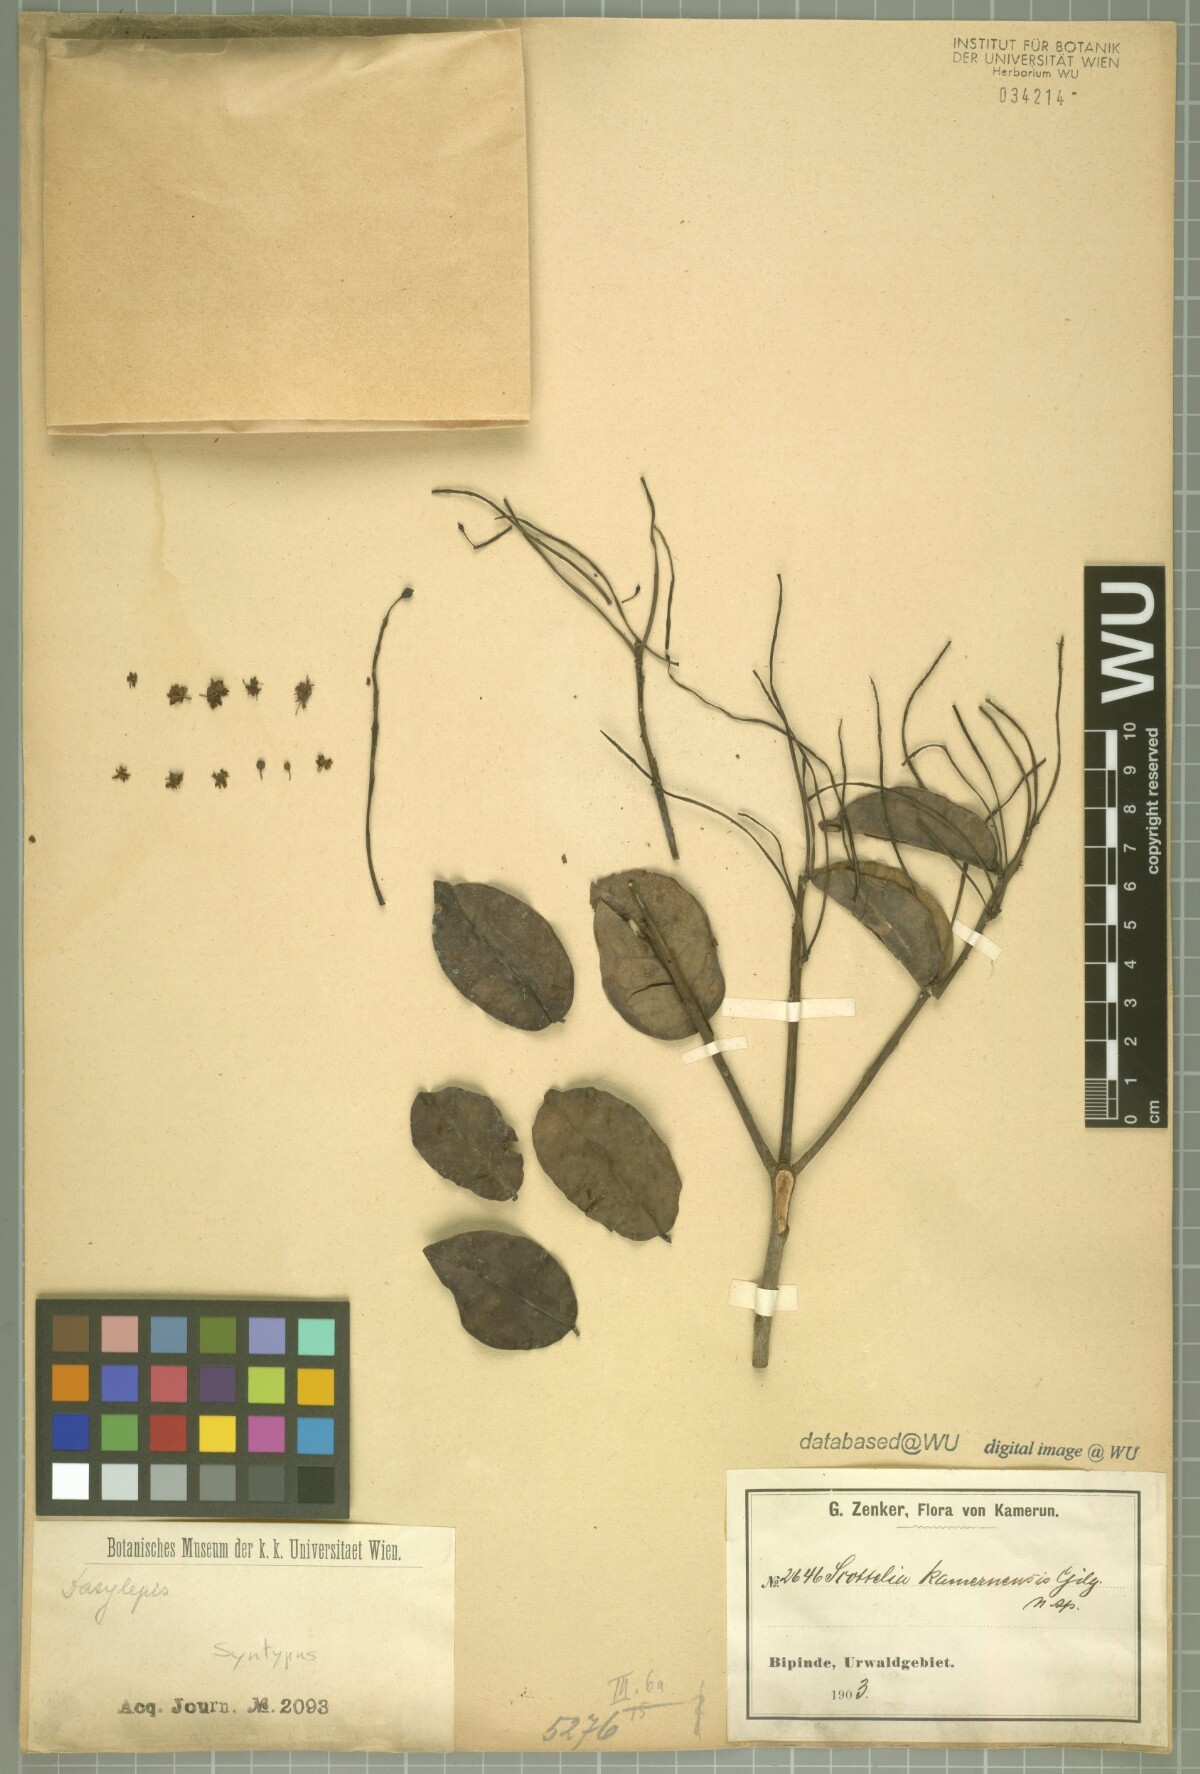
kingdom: Plantae
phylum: Tracheophyta
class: Magnoliopsida
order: Malpighiales
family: Achariaceae
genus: Scottellia
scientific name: Scottellia klaineana
